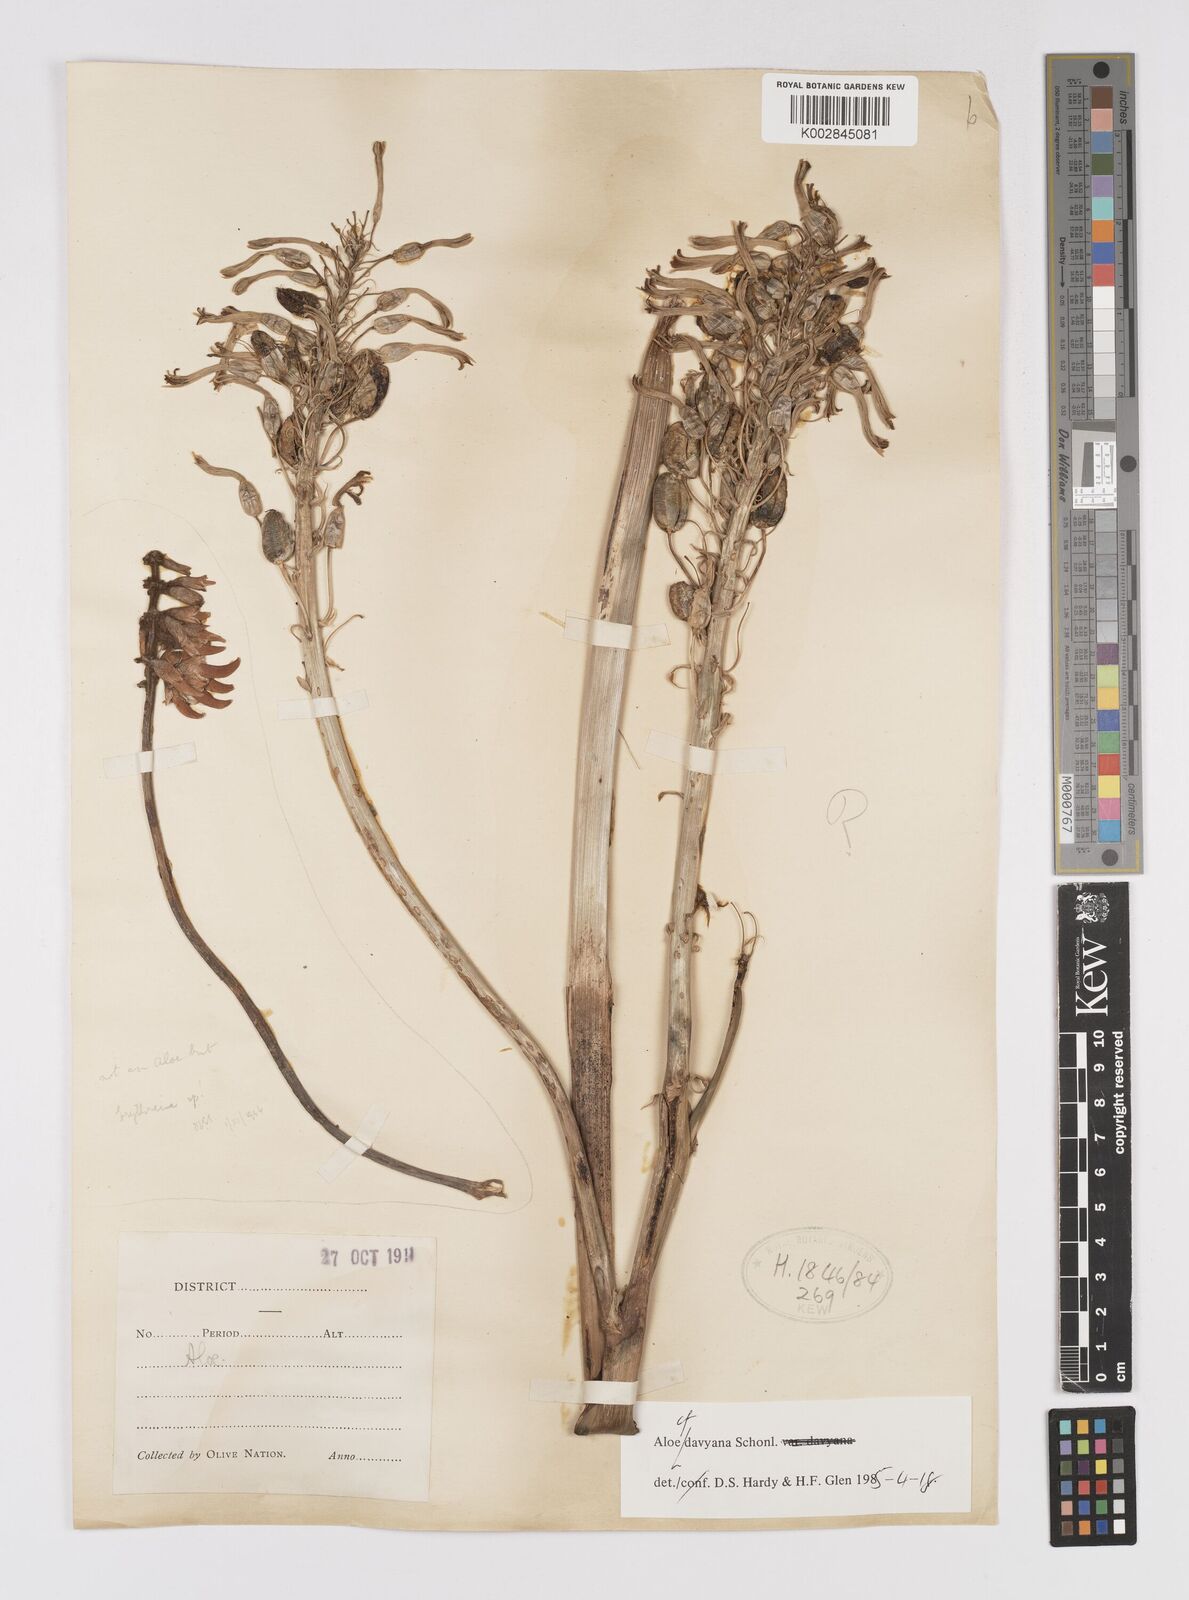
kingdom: Plantae
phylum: Tracheophyta
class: Liliopsida
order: Asparagales
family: Asphodelaceae
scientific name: Asphodelaceae
